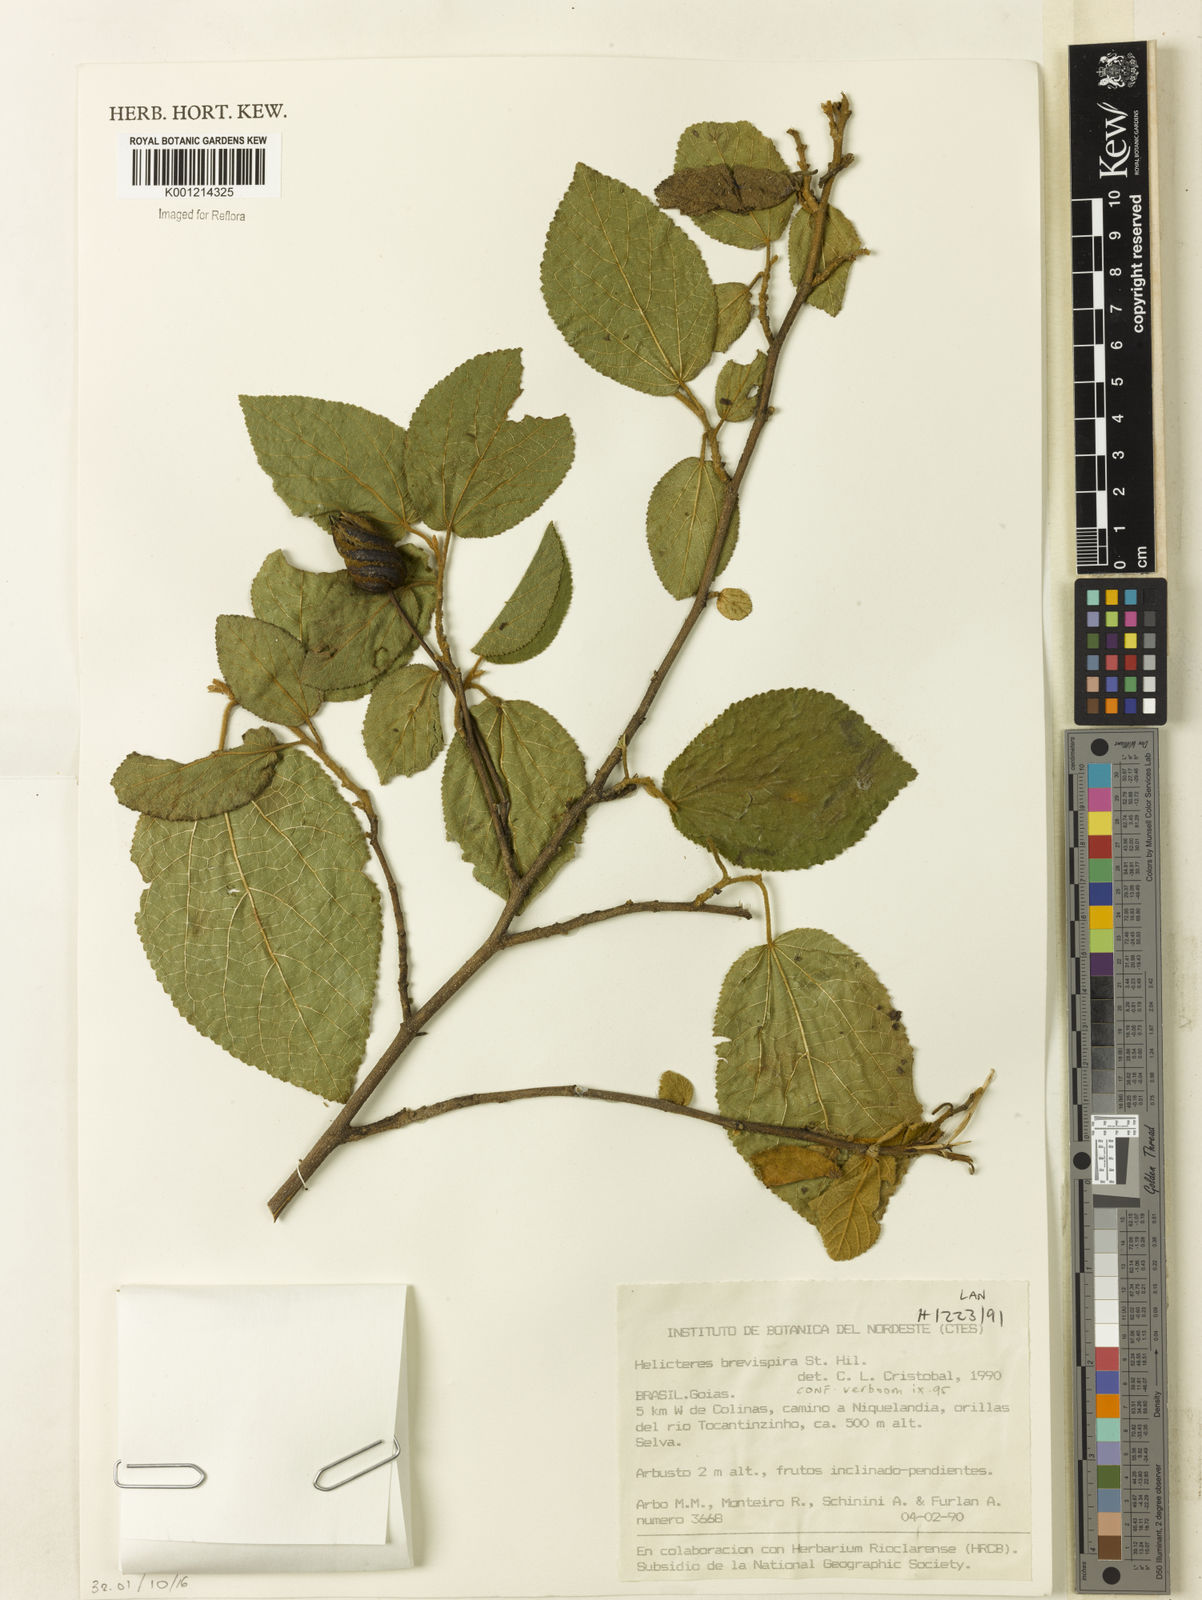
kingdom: Plantae
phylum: Tracheophyta
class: Magnoliopsida
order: Malvales
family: Malvaceae
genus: Helicteres
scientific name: Helicteres
